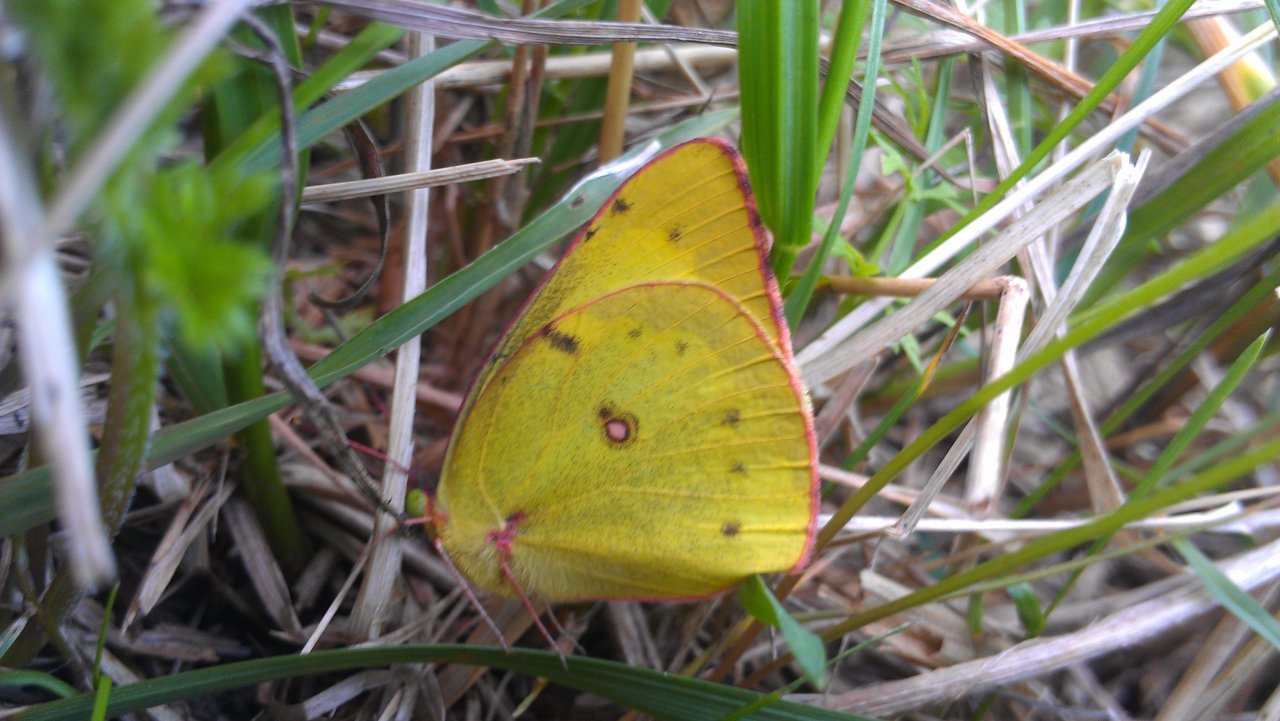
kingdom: Animalia
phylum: Arthropoda
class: Insecta
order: Lepidoptera
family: Pieridae
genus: Colias
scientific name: Colias philodice
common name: Clouded Sulphur
